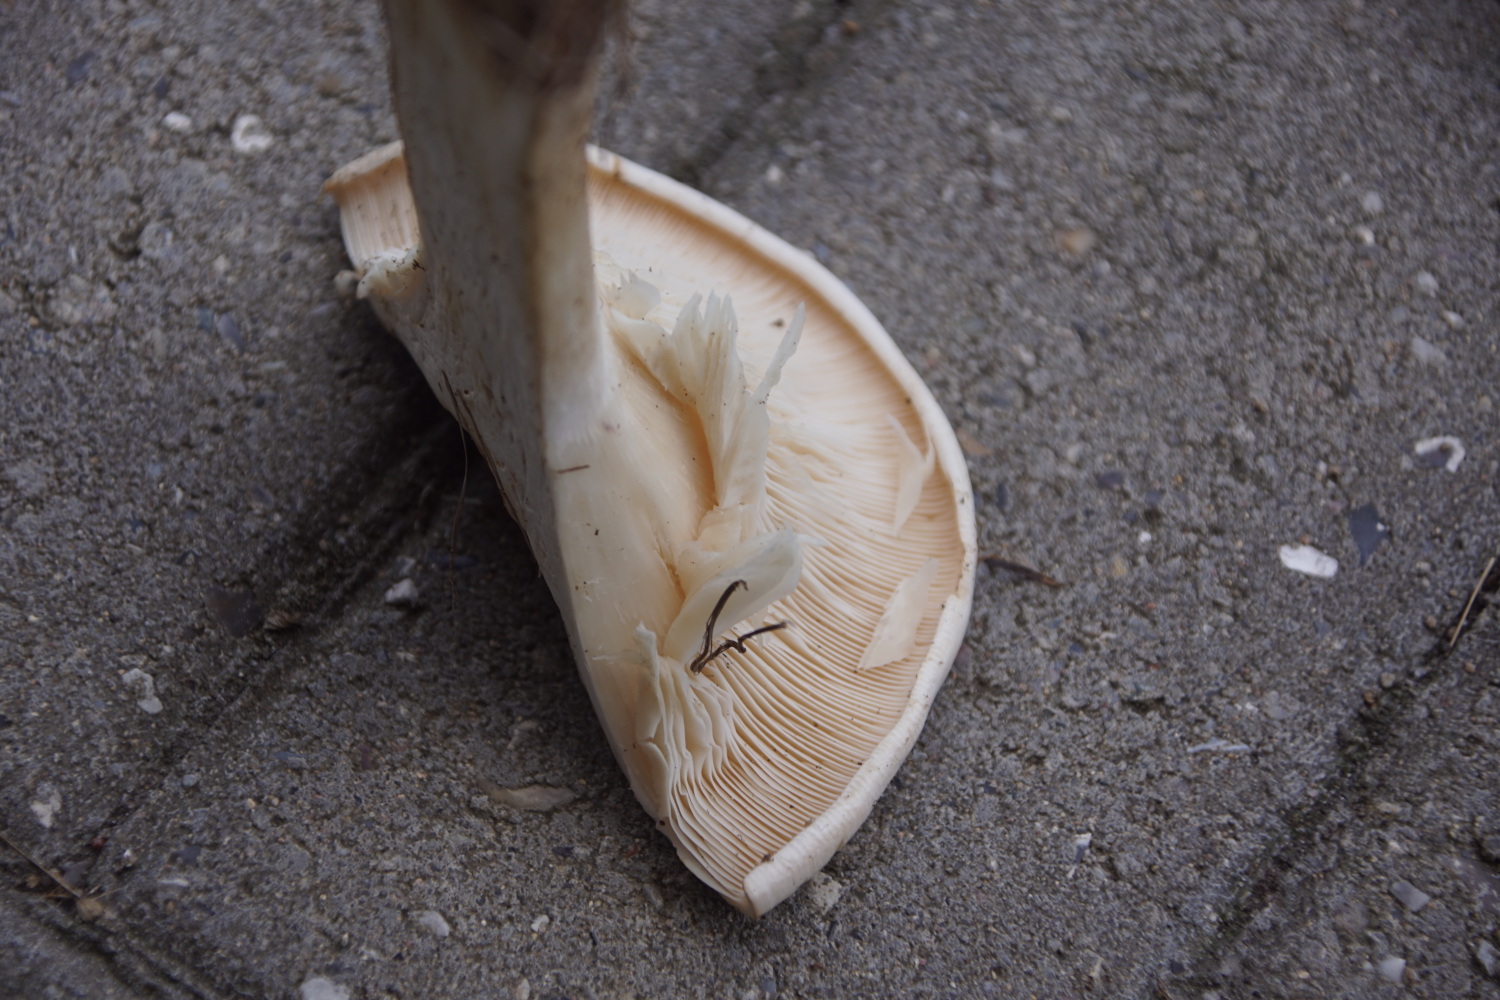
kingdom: Fungi
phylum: Basidiomycota
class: Agaricomycetes
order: Agaricales
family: Tricholomataceae
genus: Aspropaxillus
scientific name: Aspropaxillus giganteus
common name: kæmpe-tragtridderhat
